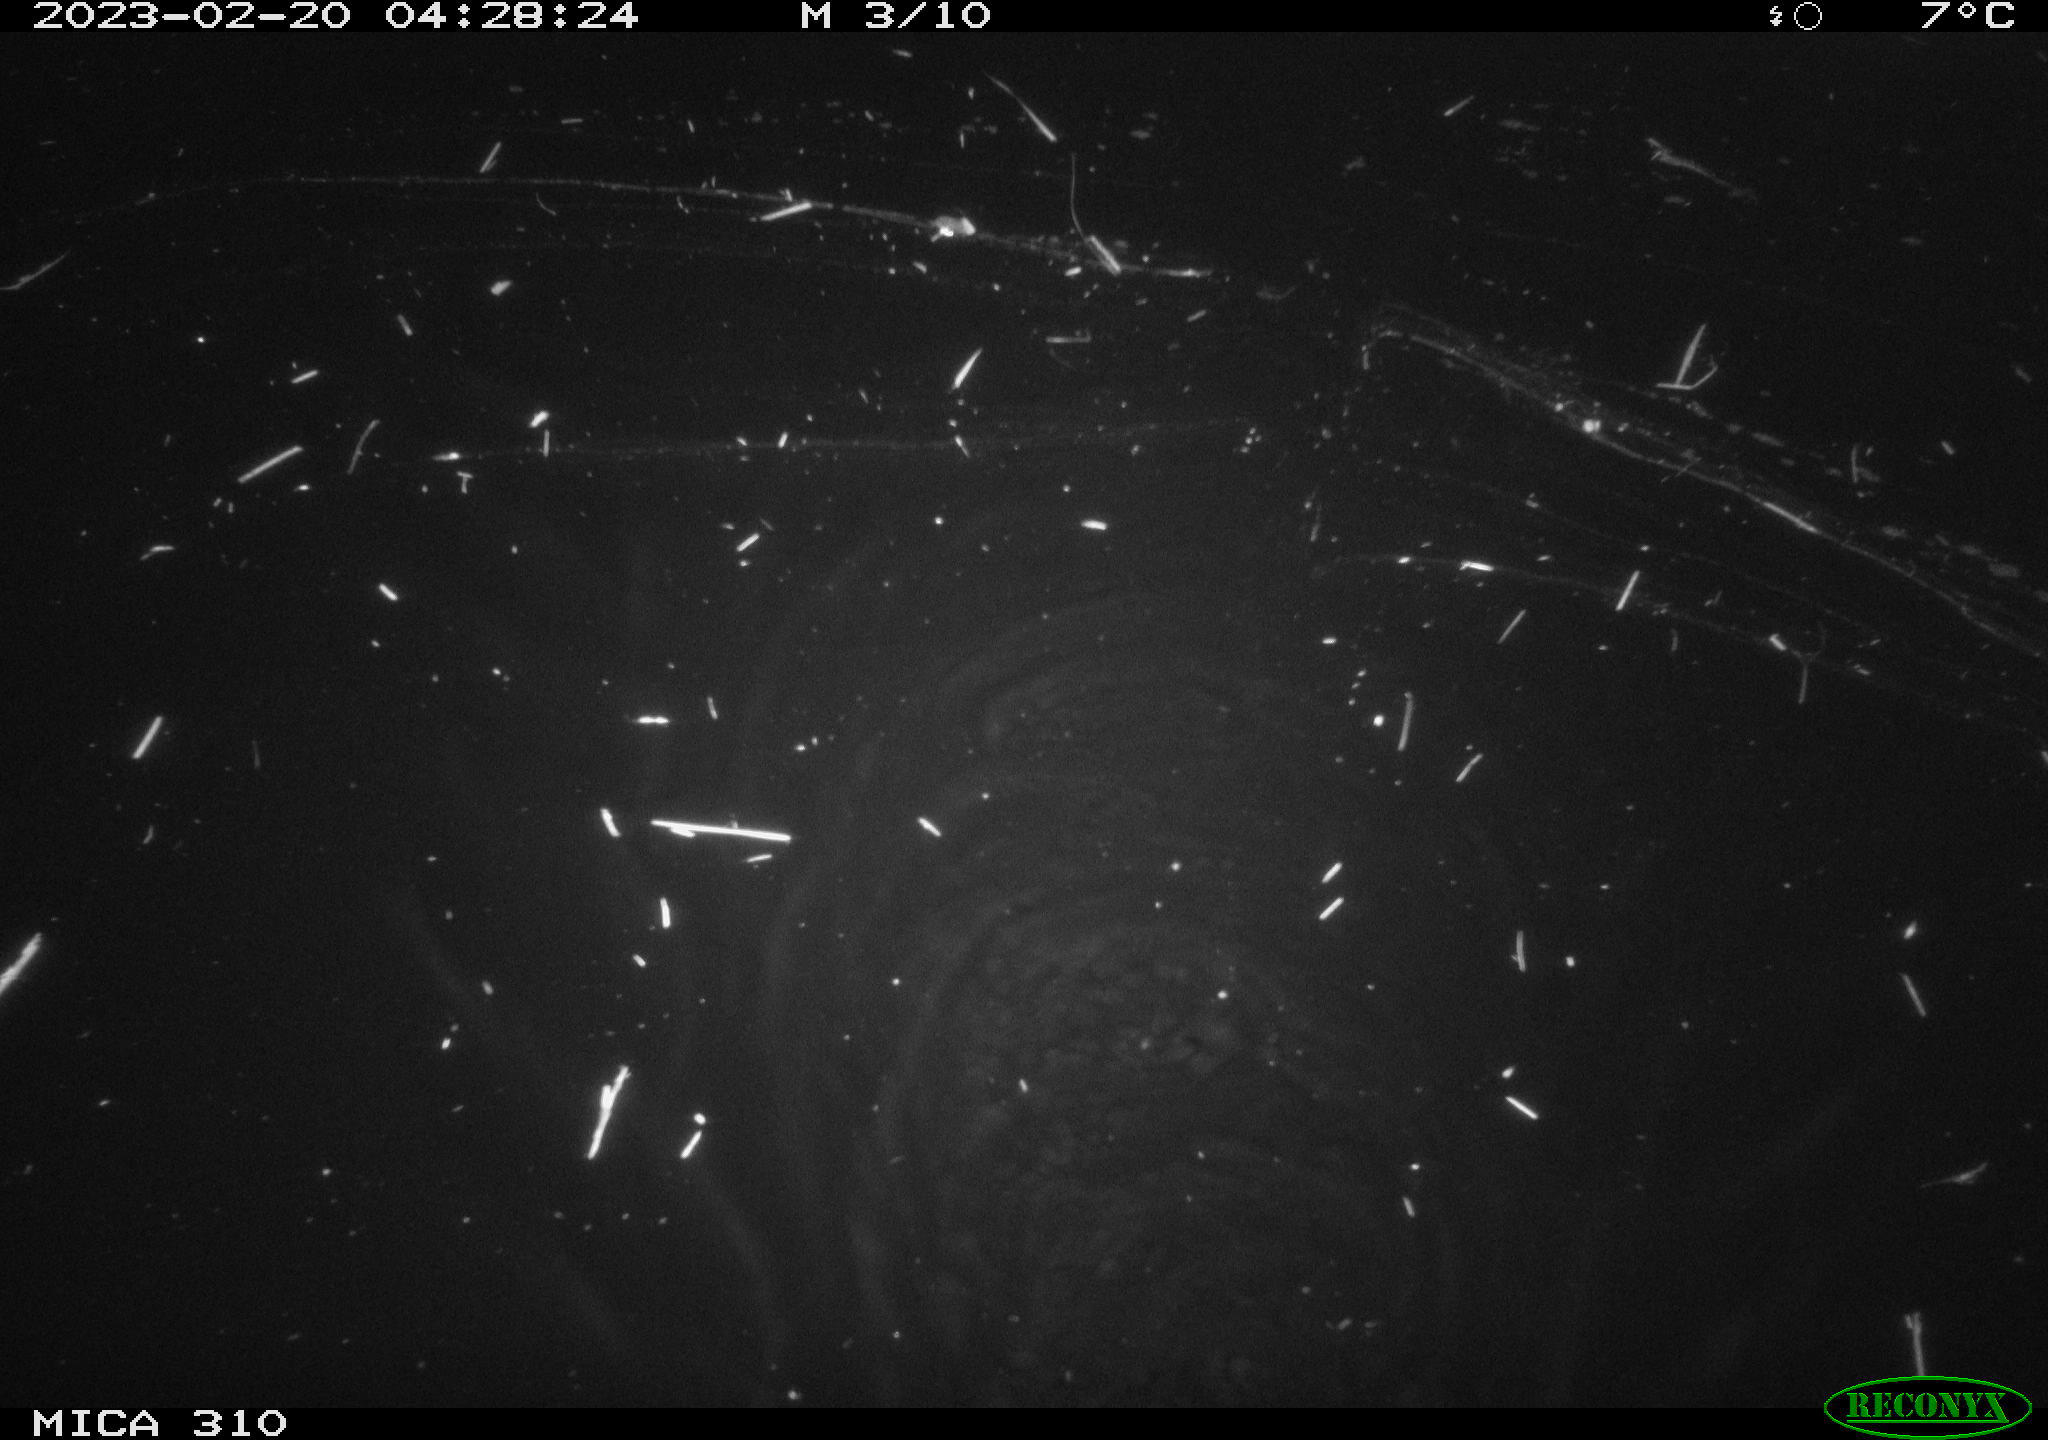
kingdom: Animalia
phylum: Chordata
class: Mammalia
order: Rodentia
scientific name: Rodentia
